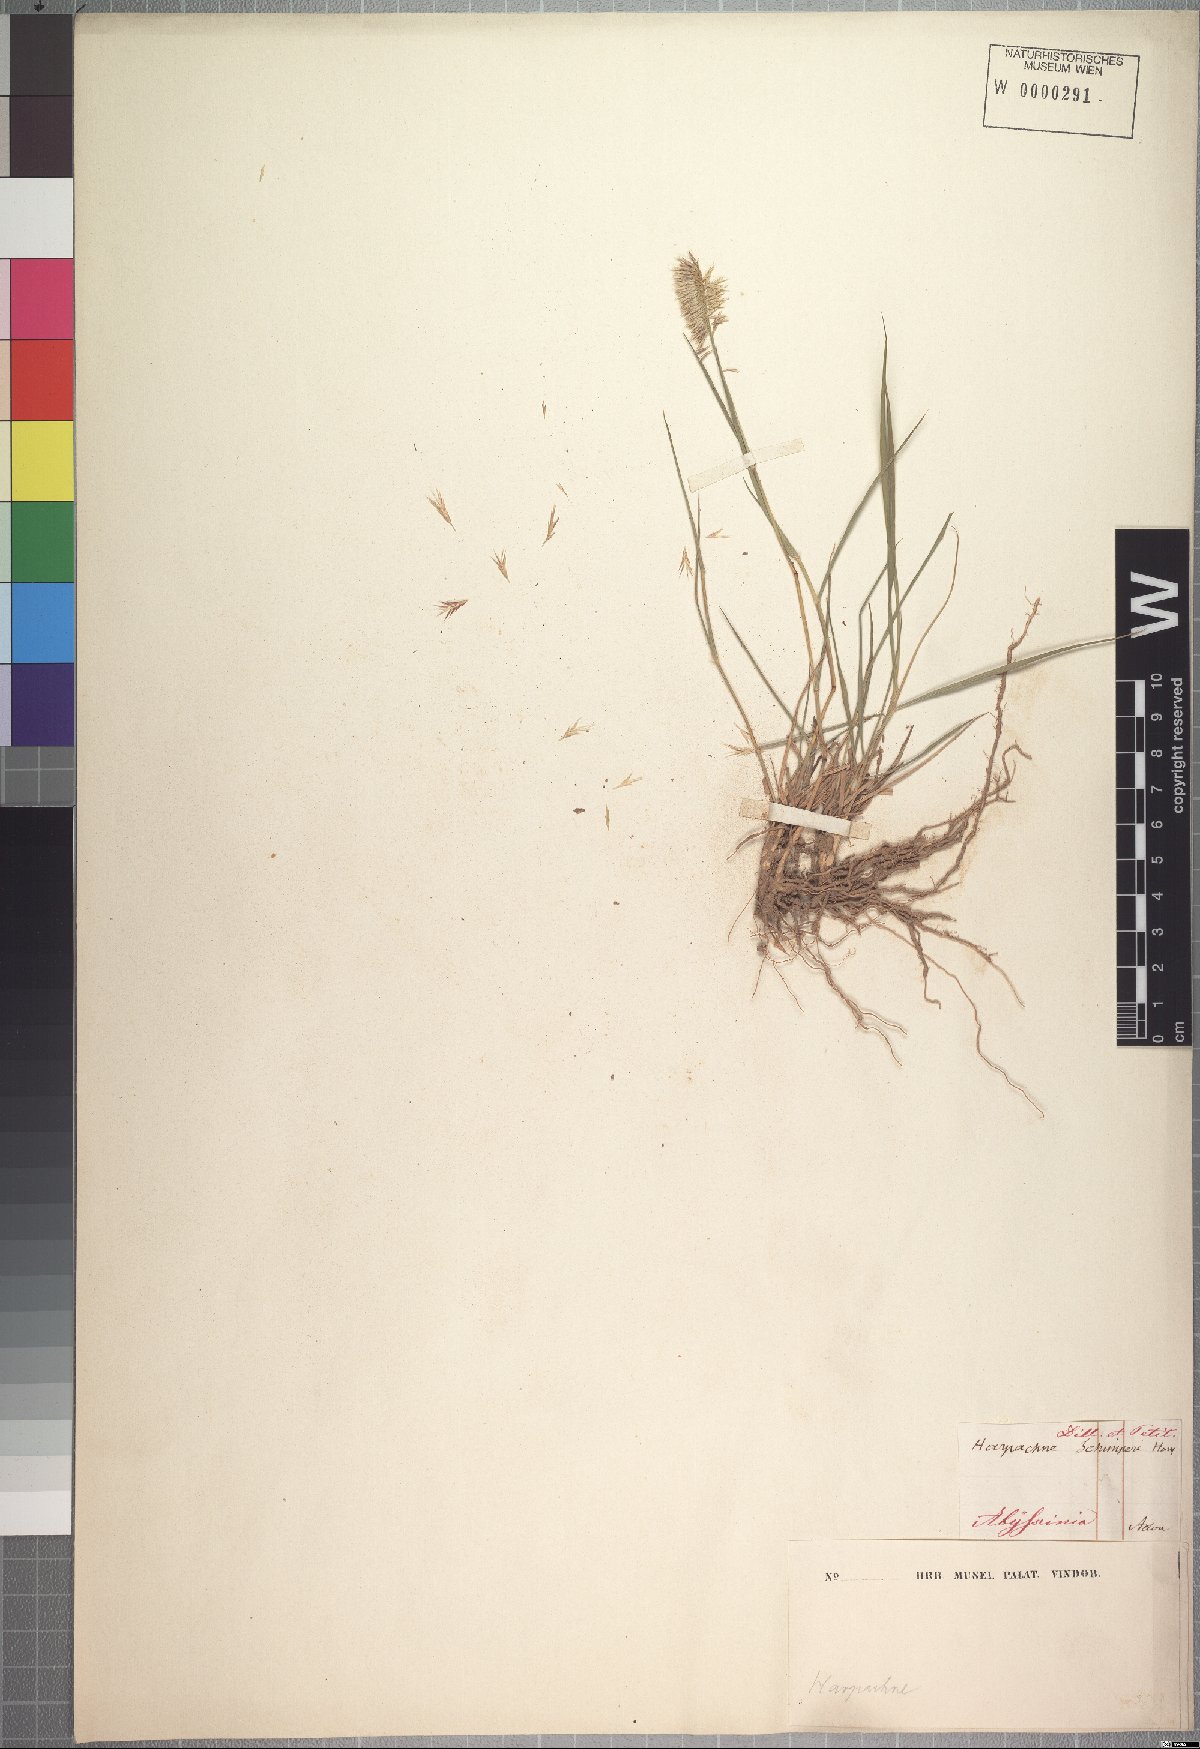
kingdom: Plantae
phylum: Tracheophyta
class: Liliopsida
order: Poales
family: Poaceae
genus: Harpachne
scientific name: Harpachne schimperi
